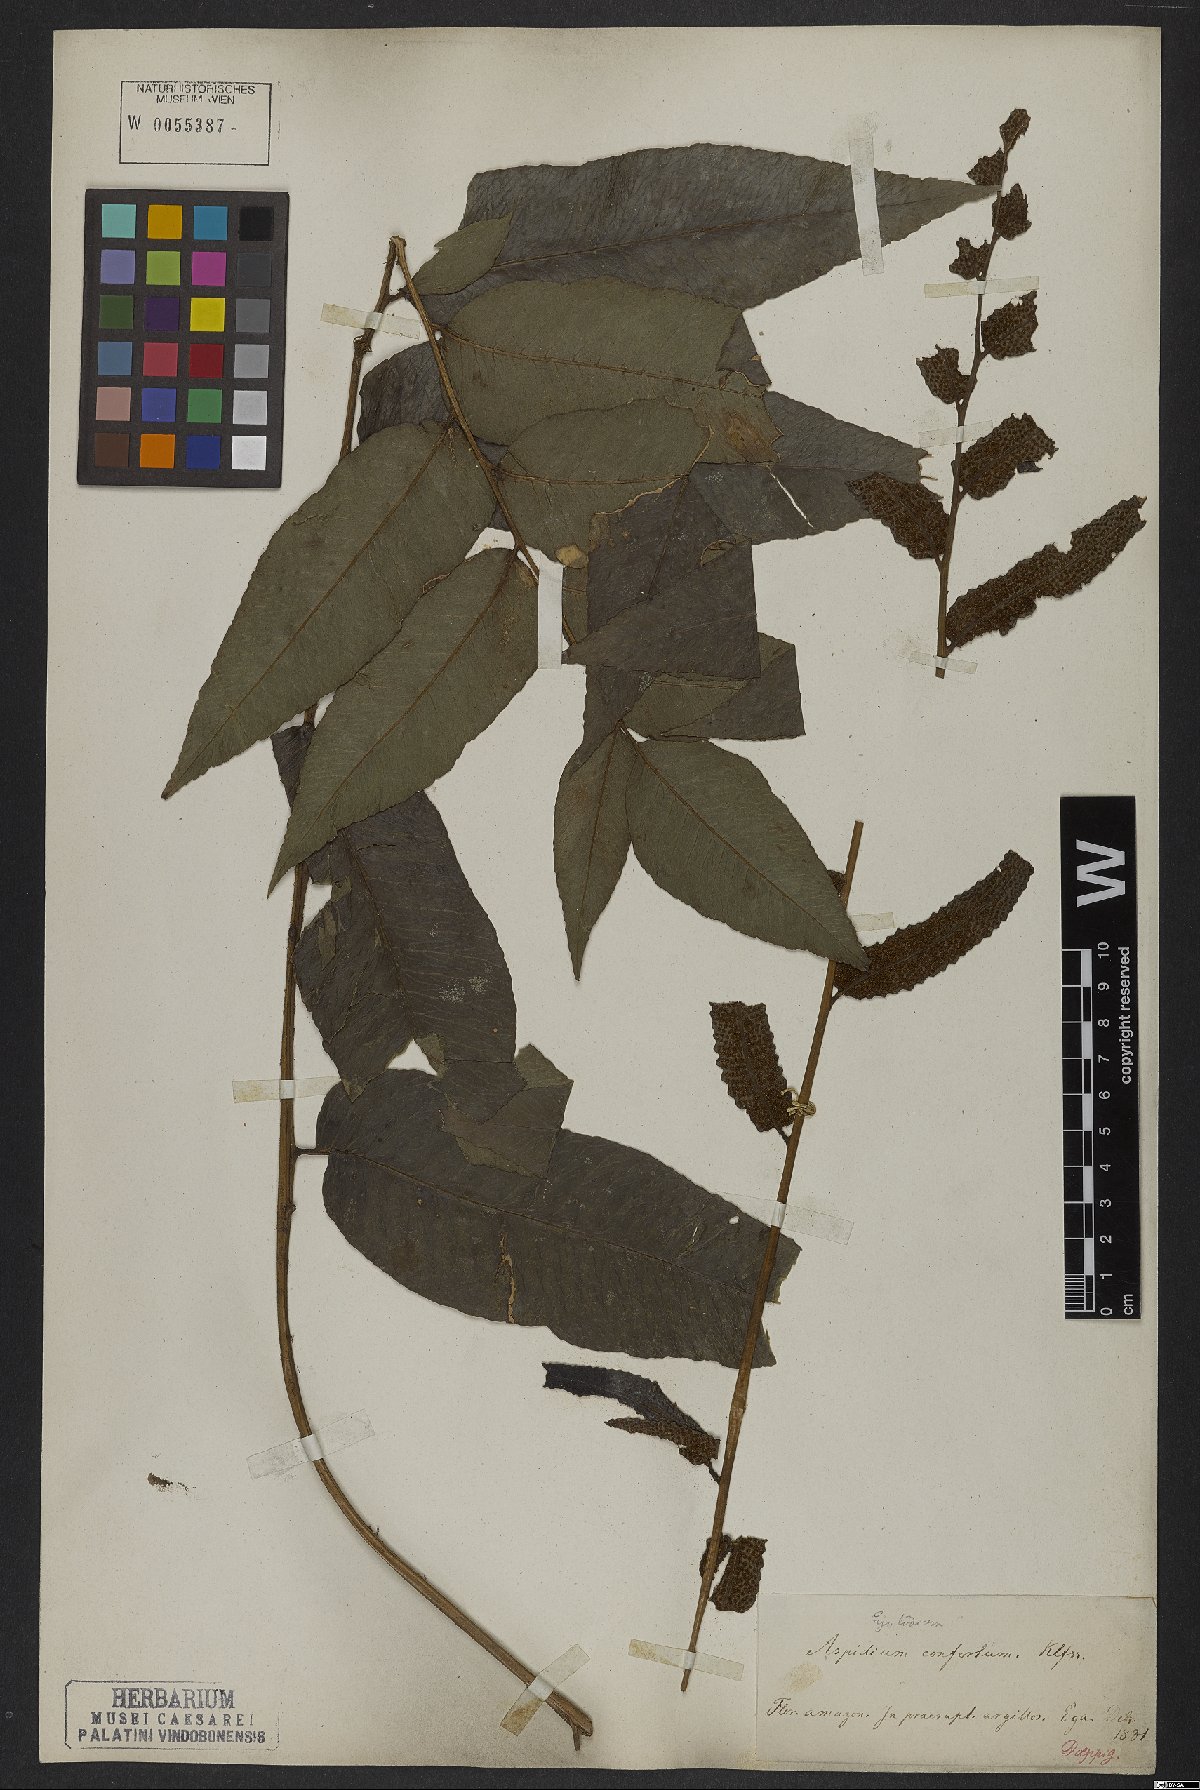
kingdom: Plantae
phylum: Tracheophyta
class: Polypodiopsida
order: Polypodiales
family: Dryopteridaceae
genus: Cyclodium
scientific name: Cyclodium meniscioides
